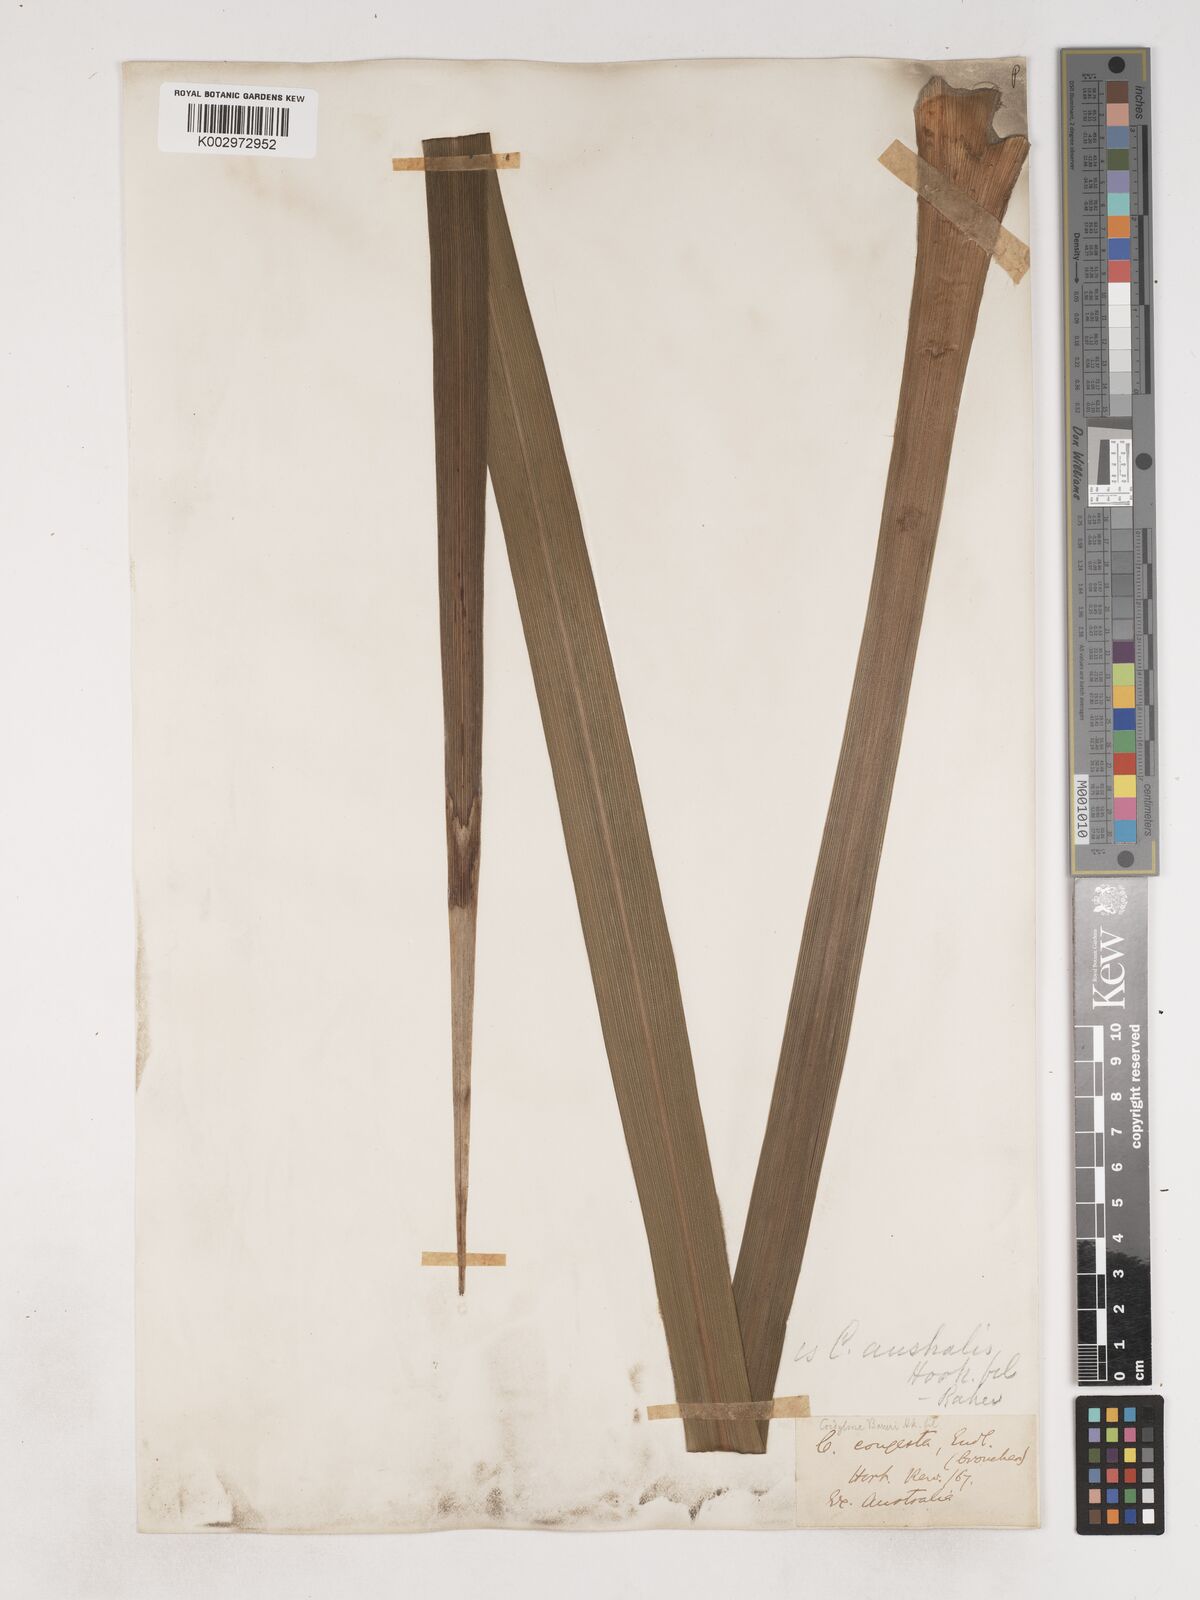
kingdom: Plantae
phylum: Tracheophyta
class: Liliopsida
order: Asparagales
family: Asparagaceae
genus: Cordyline
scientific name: Cordyline australis
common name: Cabbage-palm
